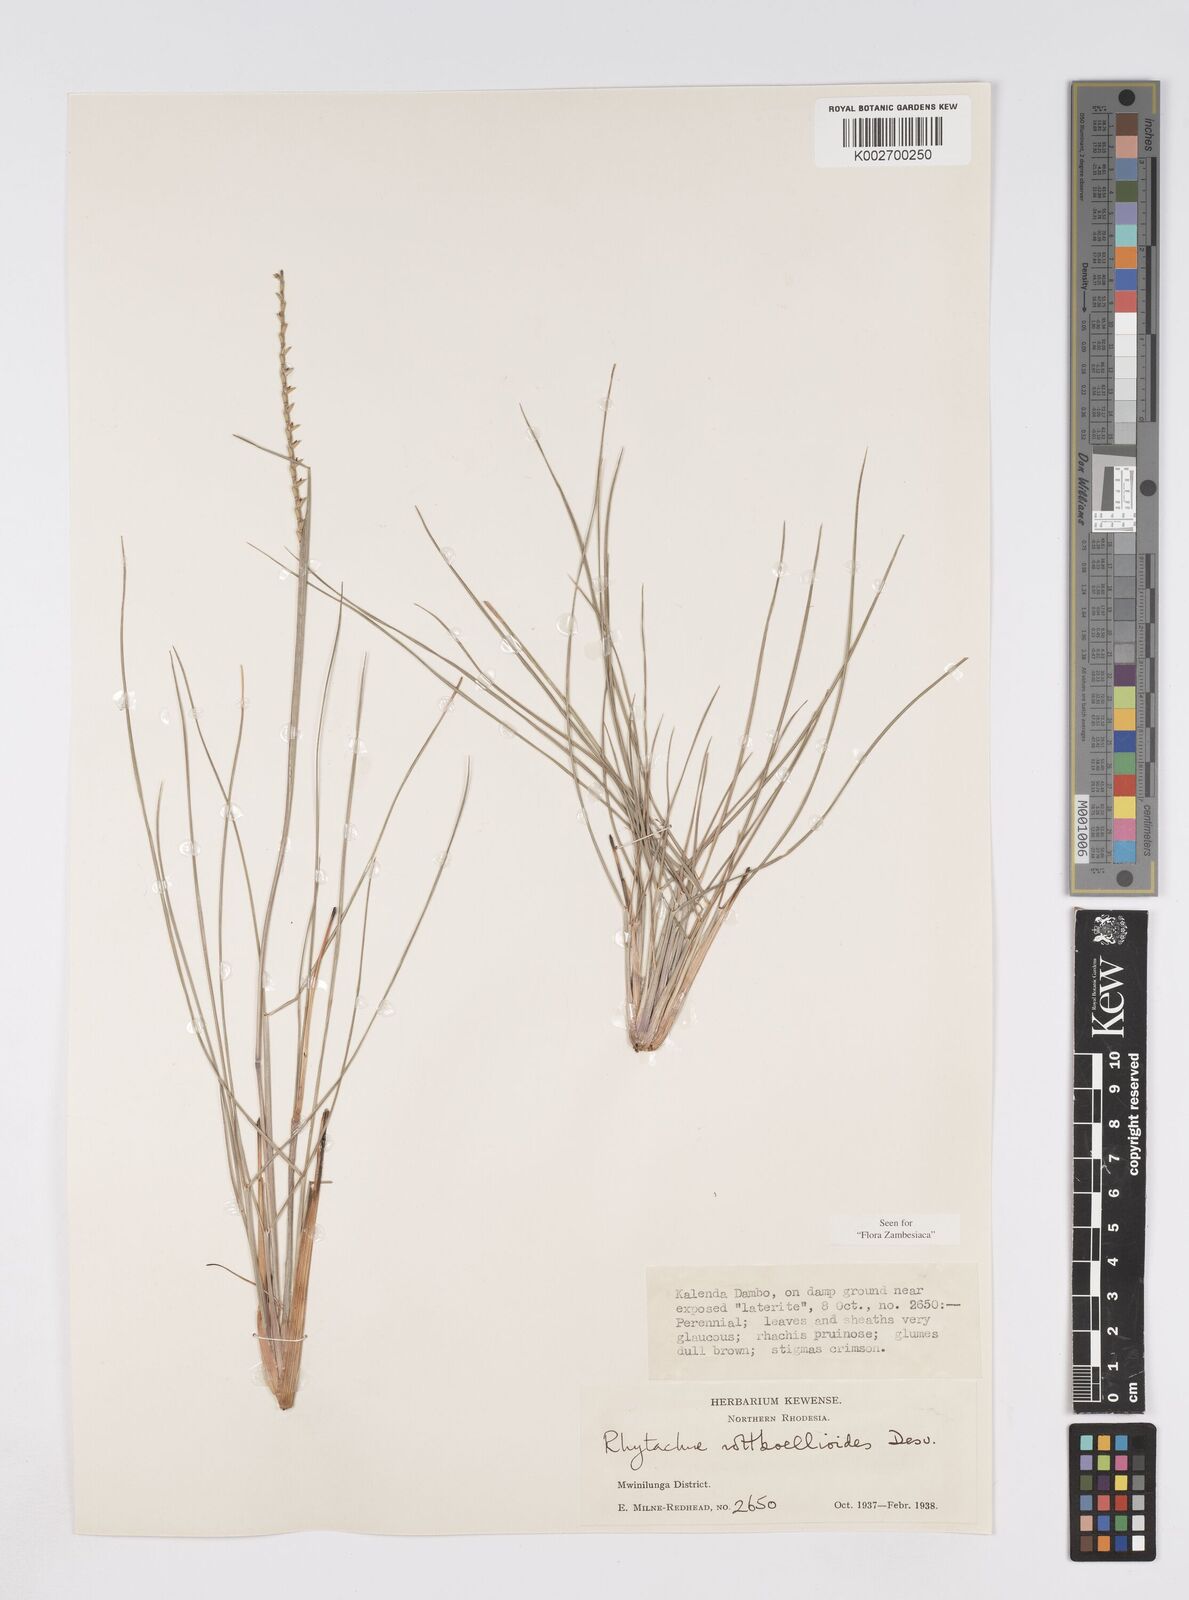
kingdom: Plantae
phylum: Tracheophyta
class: Liliopsida
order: Poales
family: Poaceae
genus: Rhytachne
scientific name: Rhytachne rottboellioides
